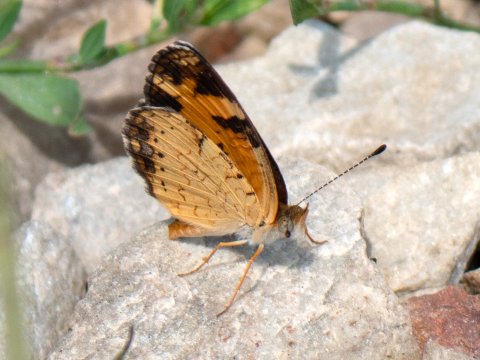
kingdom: Animalia
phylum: Arthropoda
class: Insecta
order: Lepidoptera
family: Nymphalidae
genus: Phyciodes
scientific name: Phyciodes
